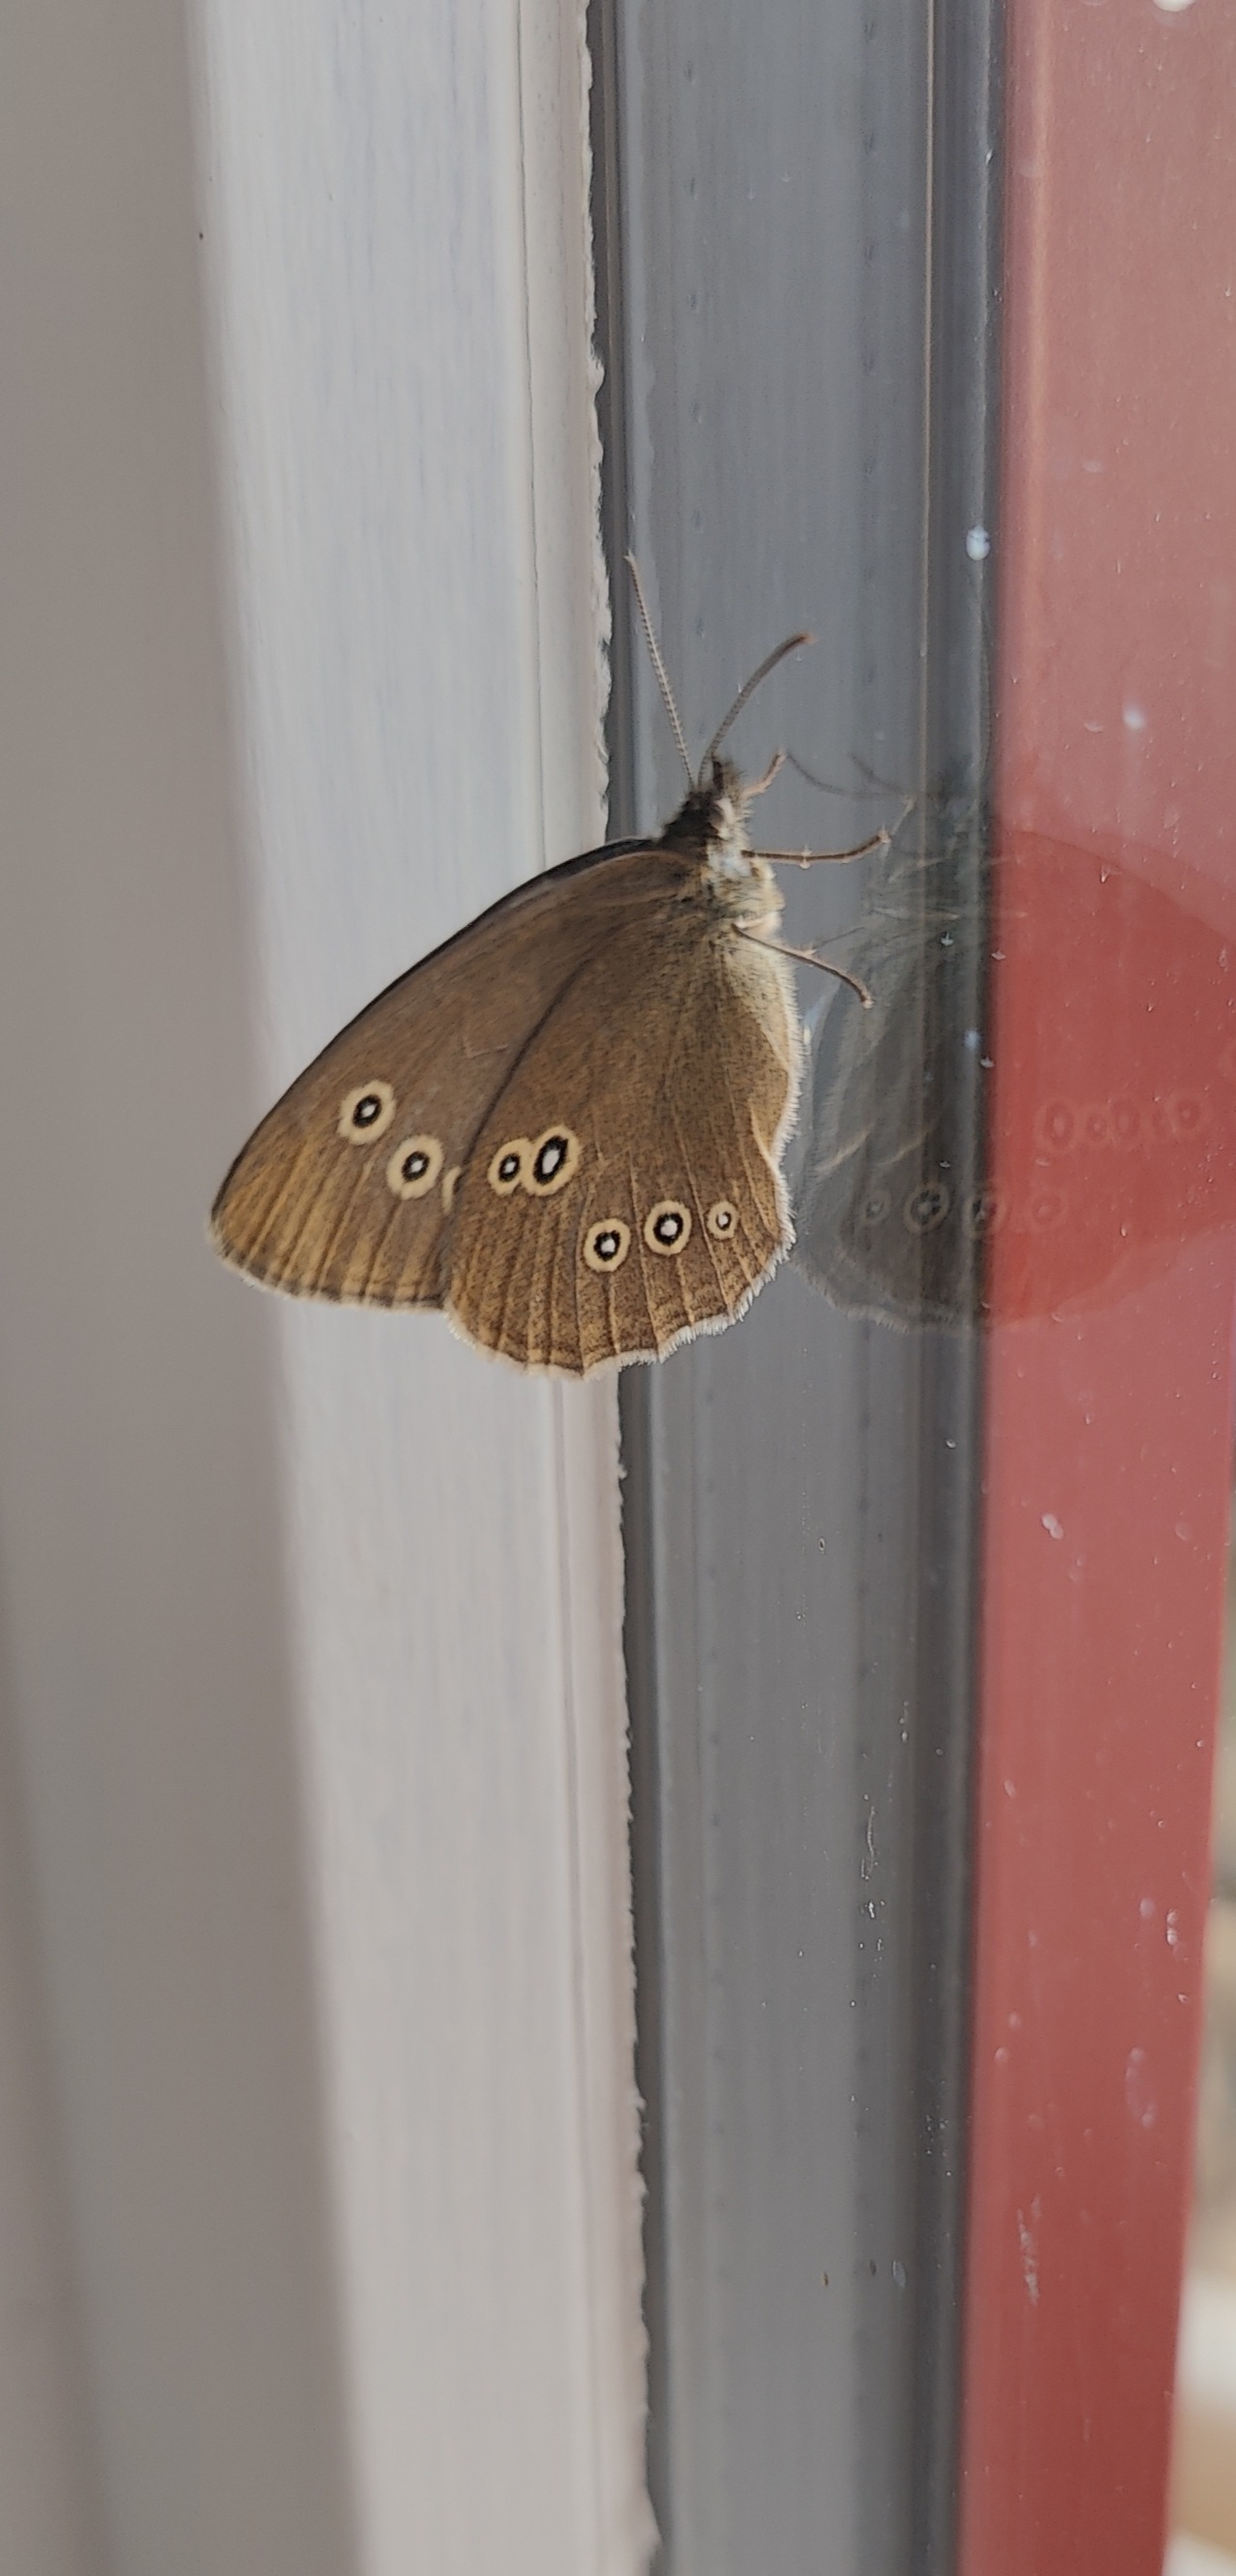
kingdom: Animalia
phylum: Arthropoda
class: Insecta
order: Lepidoptera
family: Nymphalidae
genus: Aphantopus
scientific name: Aphantopus hyperantus
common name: Engrandøje
